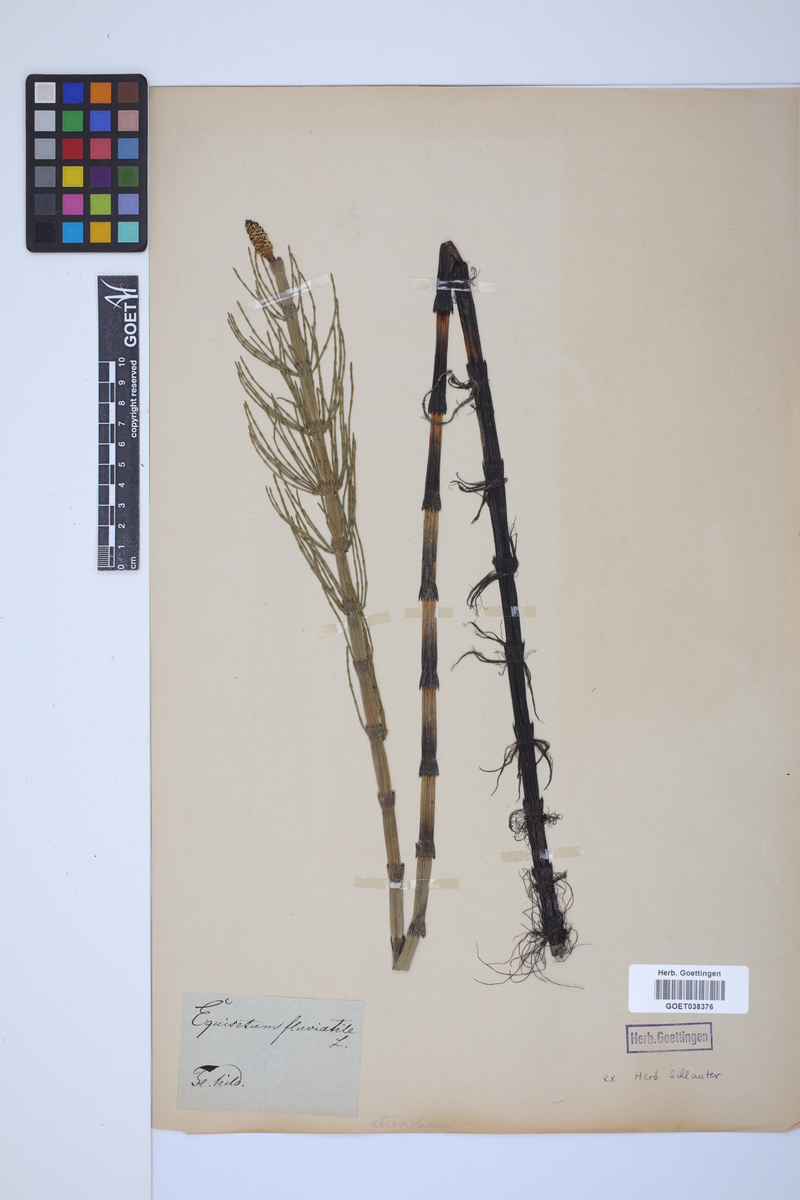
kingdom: Plantae
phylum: Tracheophyta
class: Polypodiopsida
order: Equisetales
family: Equisetaceae
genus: Equisetum
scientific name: Equisetum fluviatile
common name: Water horsetail
